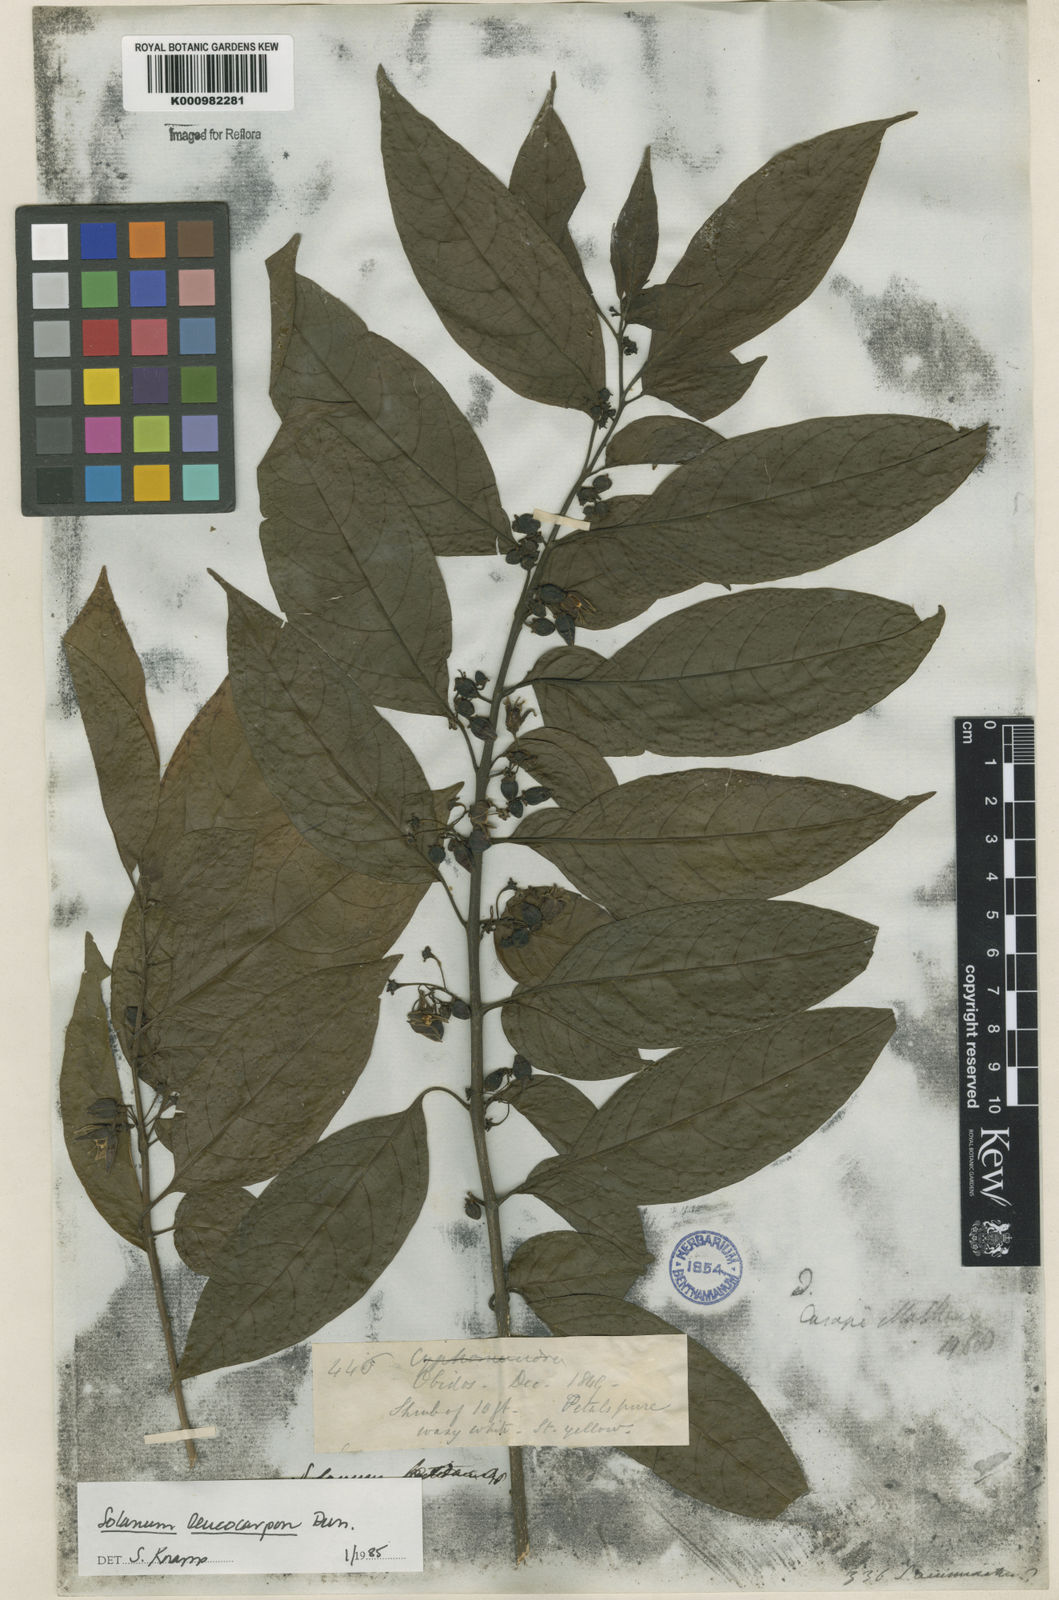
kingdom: Plantae
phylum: Tracheophyta
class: Magnoliopsida
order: Solanales
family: Solanaceae
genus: Solanum
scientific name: Solanum leucocarpon
